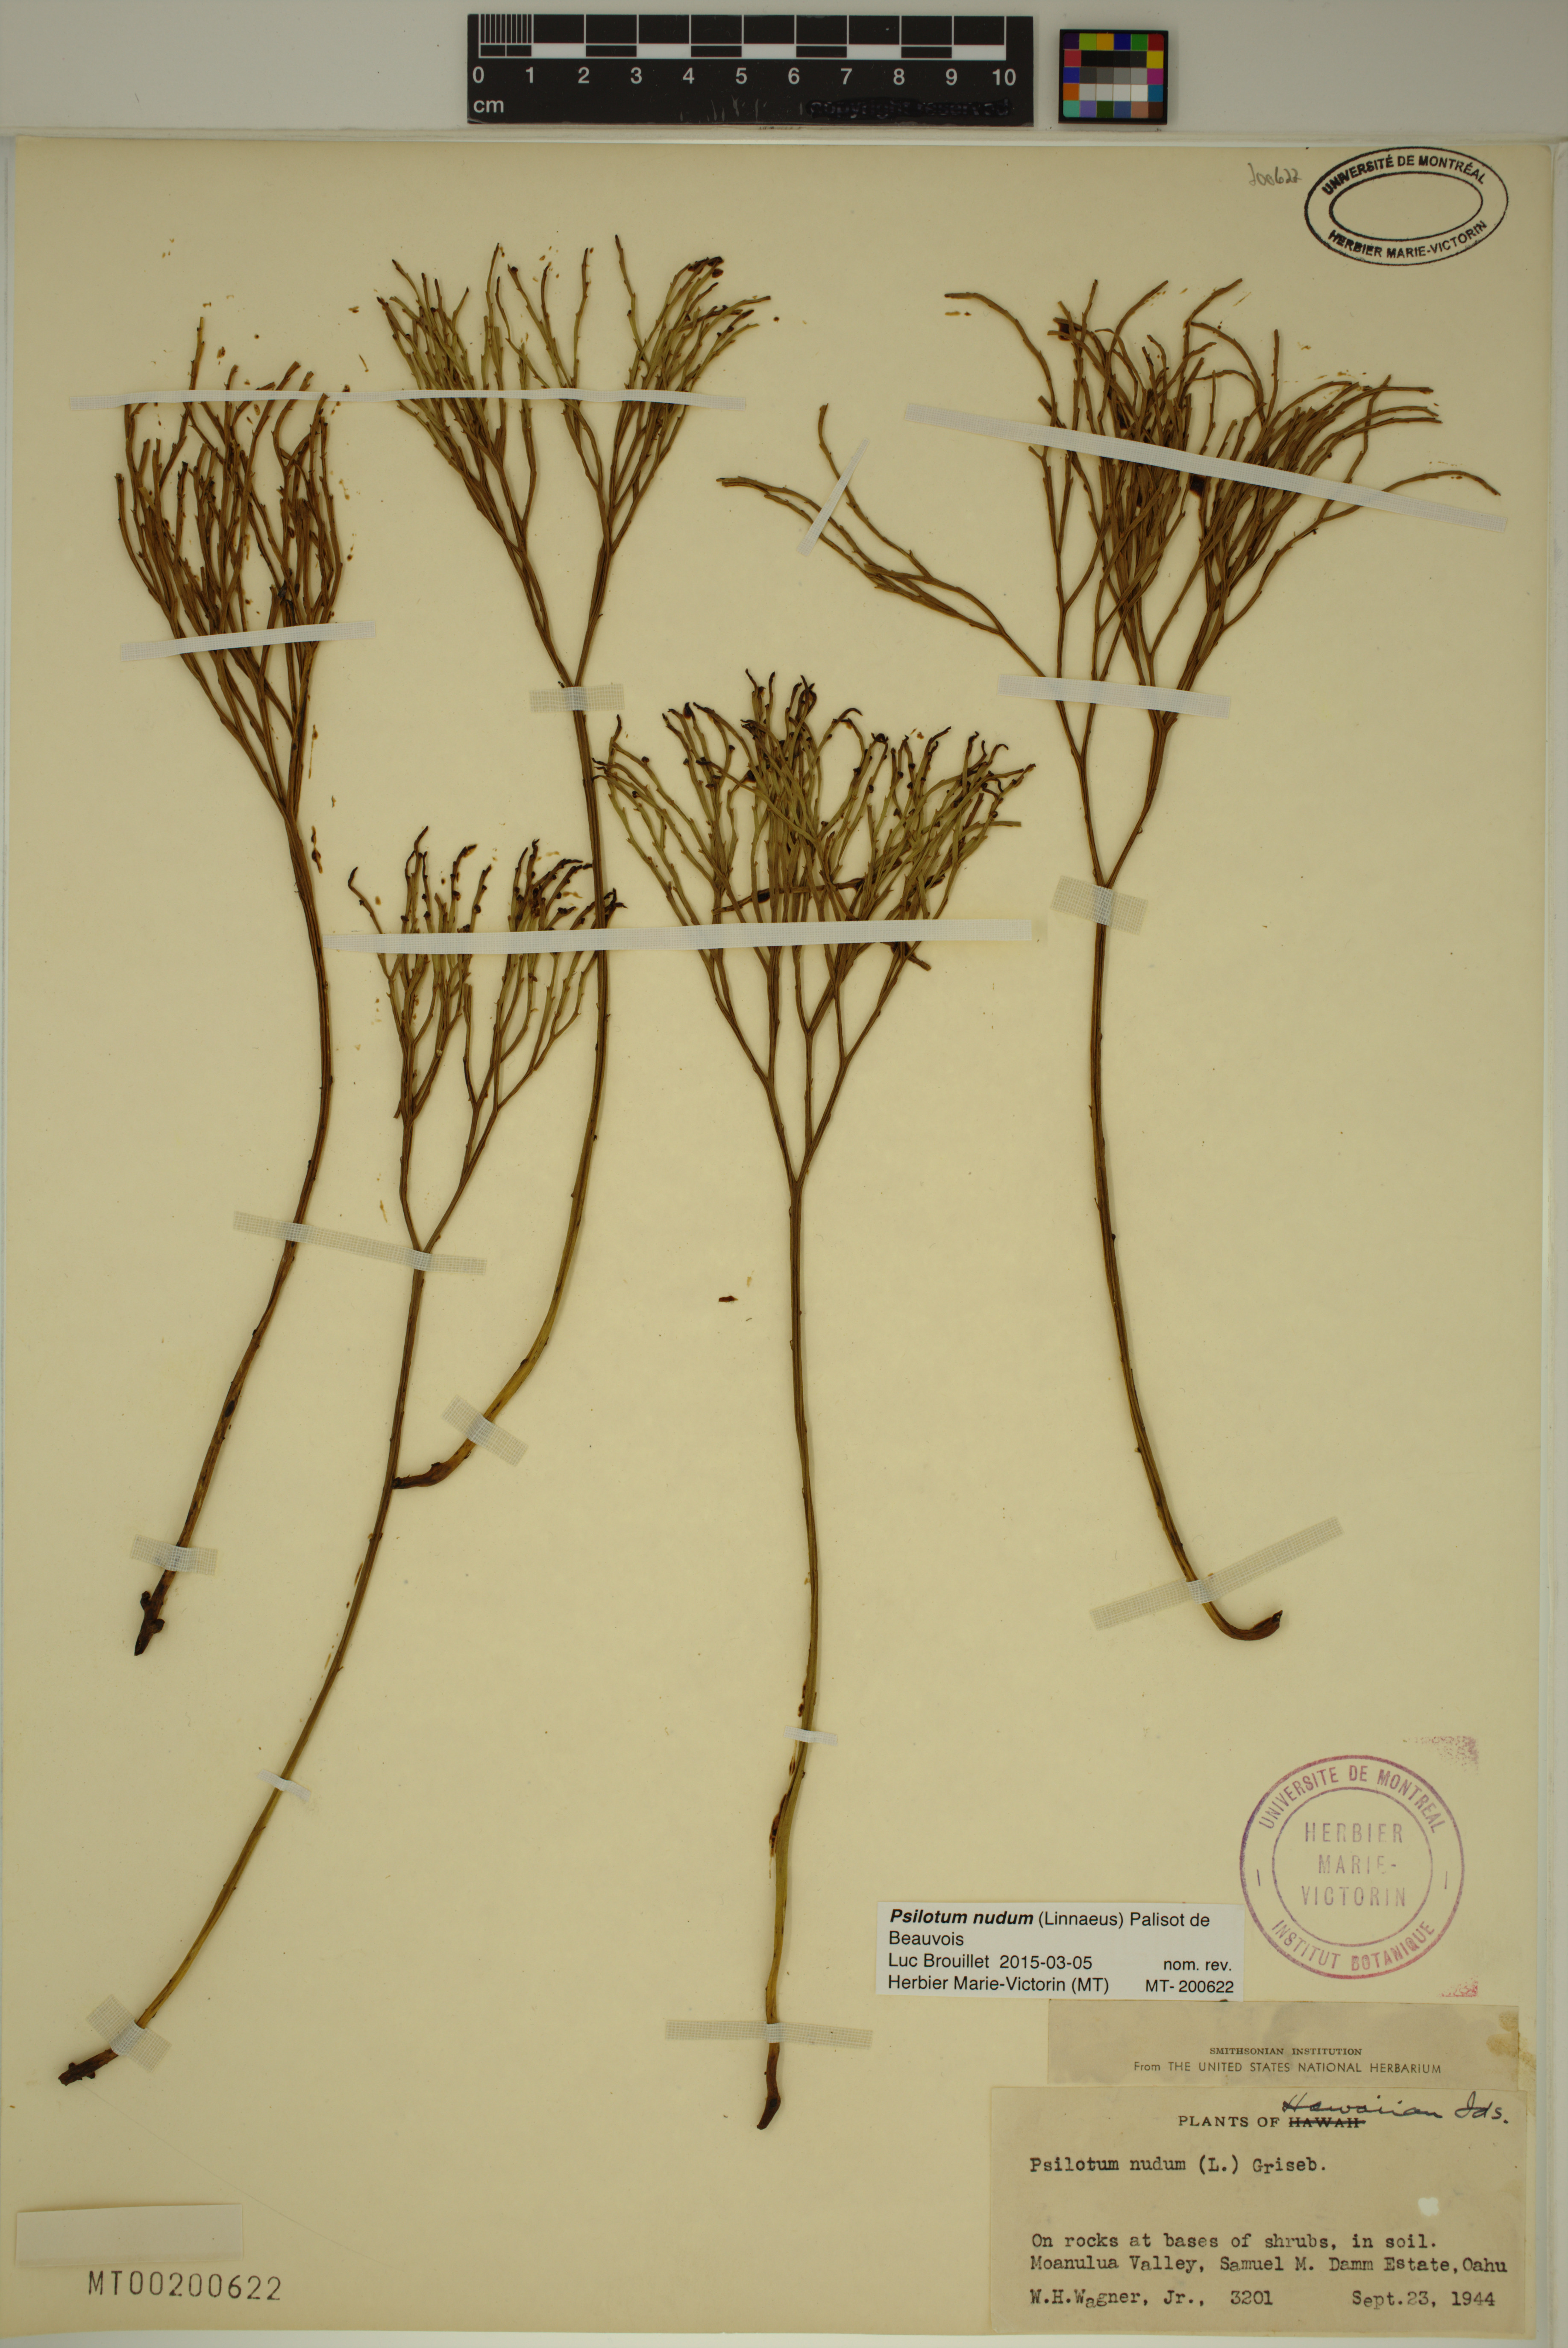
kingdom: Plantae
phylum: Tracheophyta
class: Polypodiopsida
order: Psilotales
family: Psilotaceae
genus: Psilotum
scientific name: Psilotum nudum
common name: Skeleton fork fern
